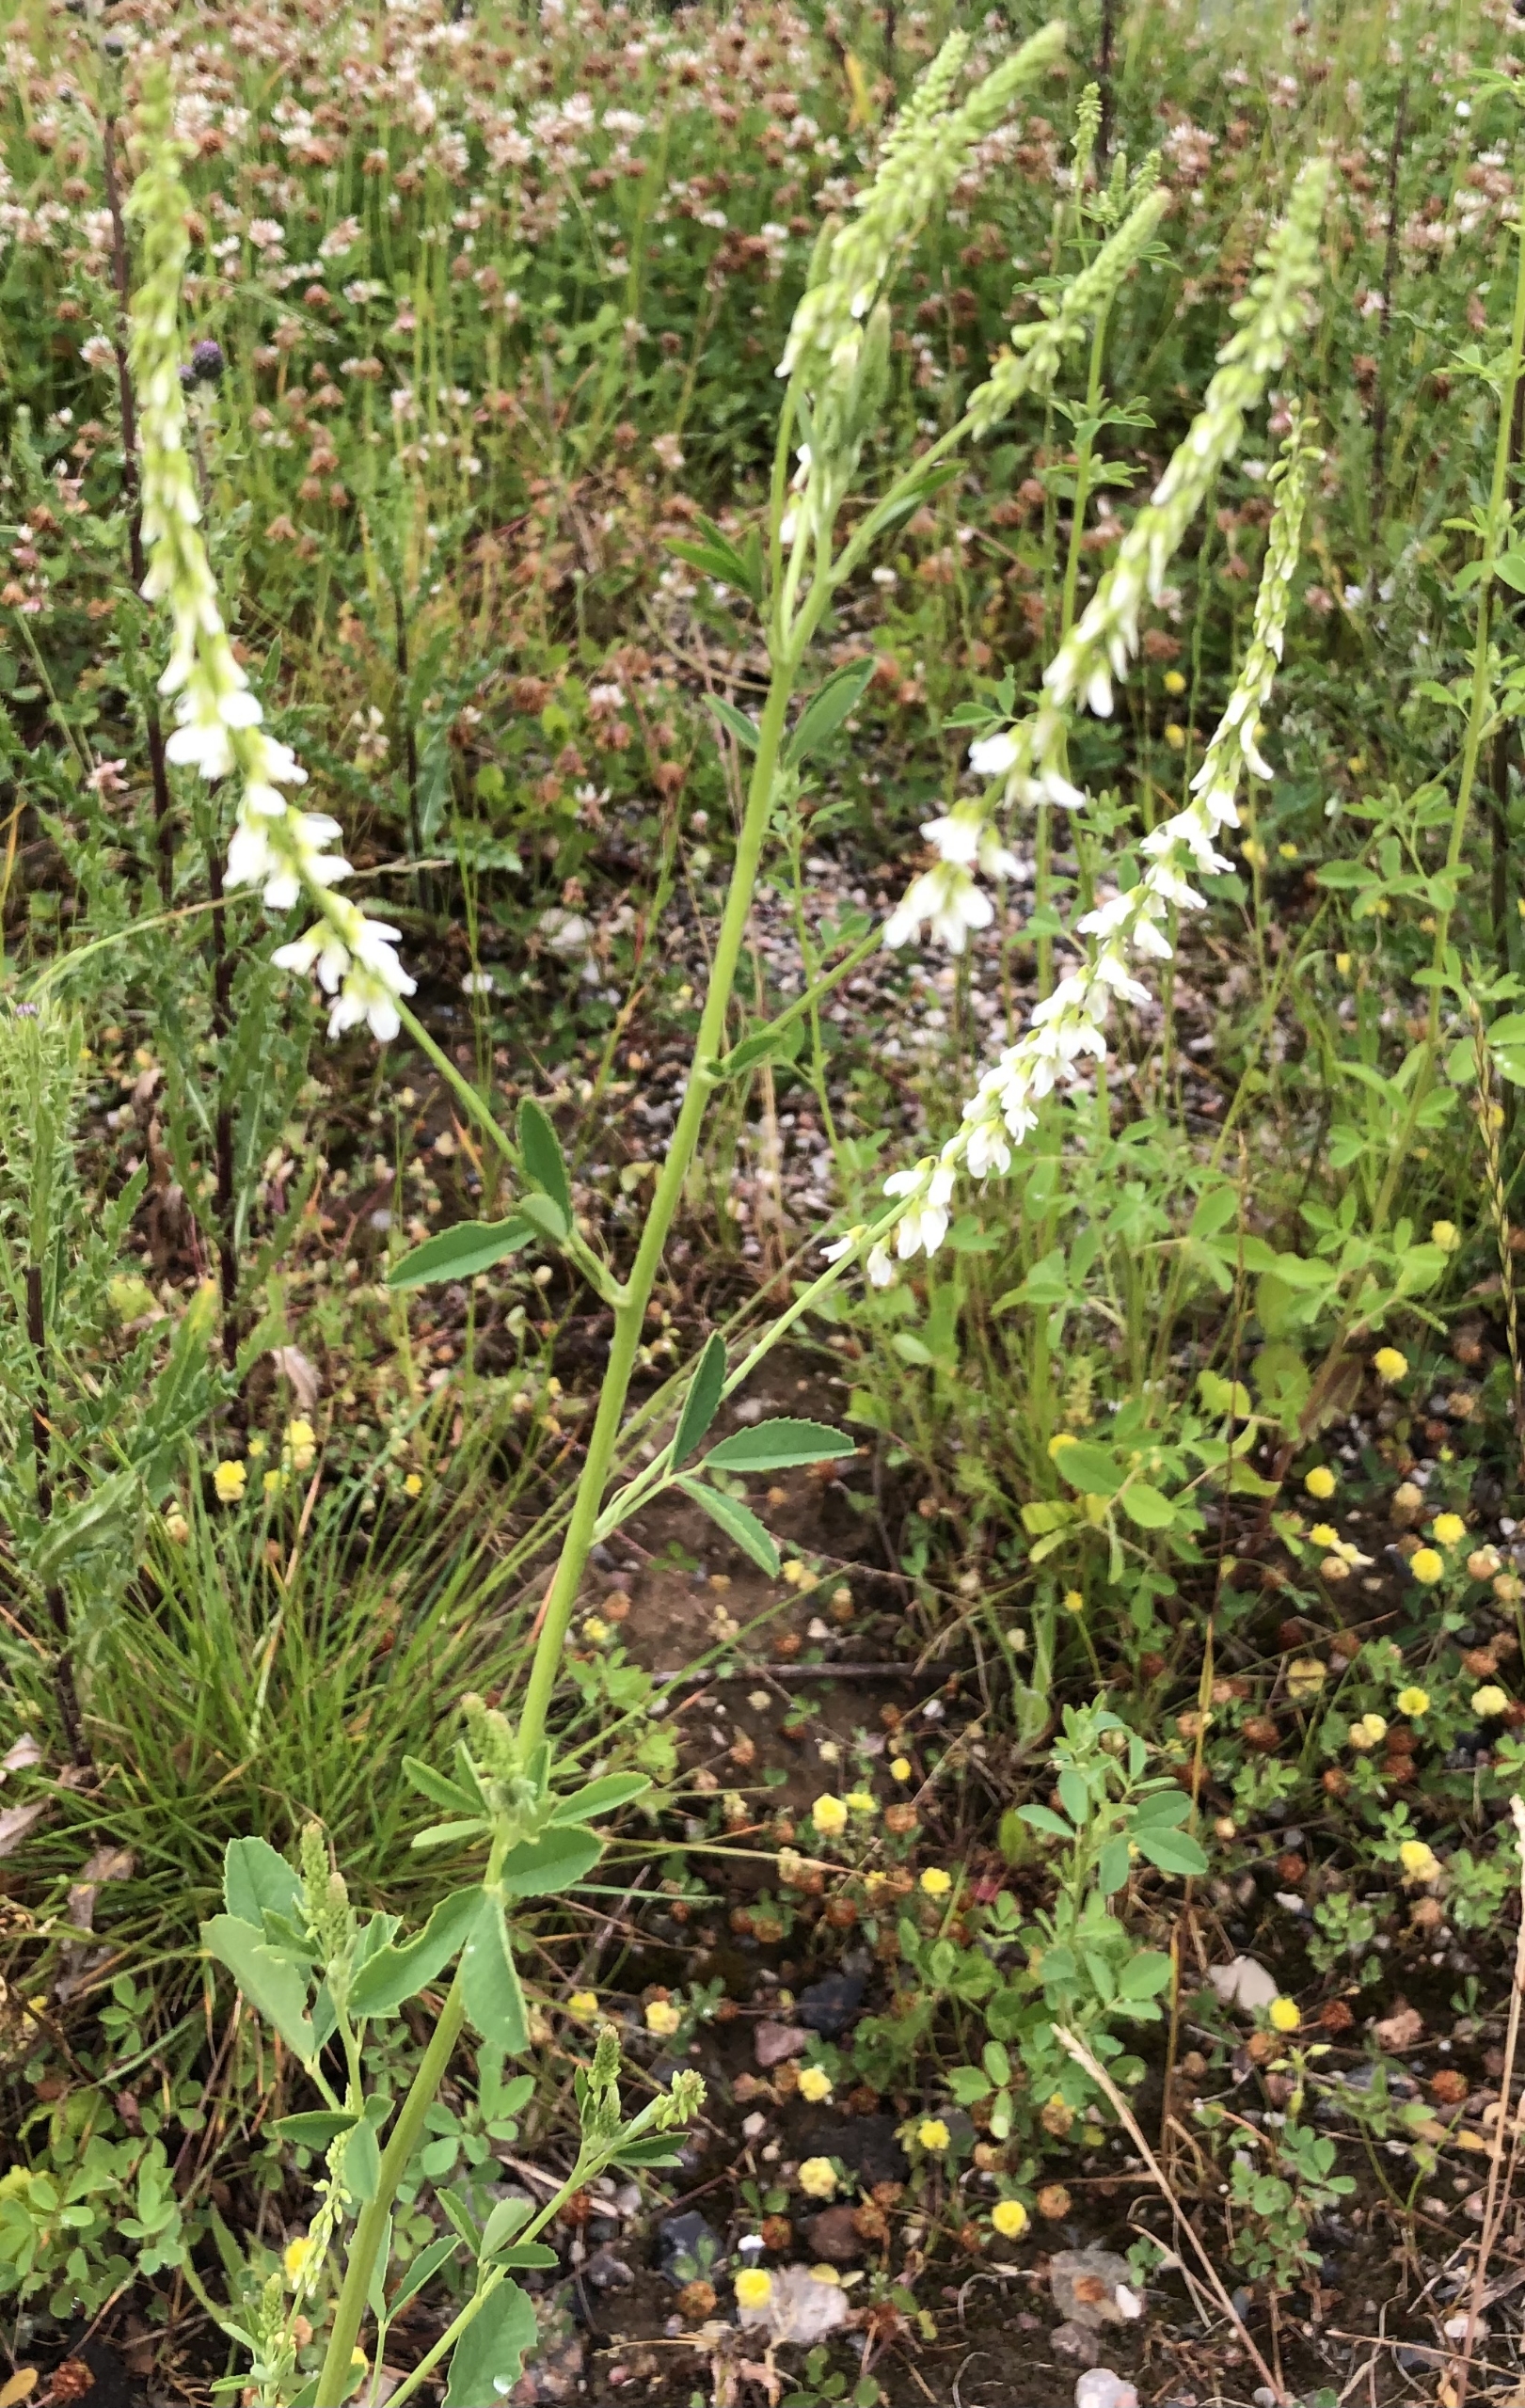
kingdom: Plantae
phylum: Tracheophyta
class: Magnoliopsida
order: Fabales
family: Fabaceae
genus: Melilotus
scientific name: Melilotus albus
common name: Hvid stenkløver
